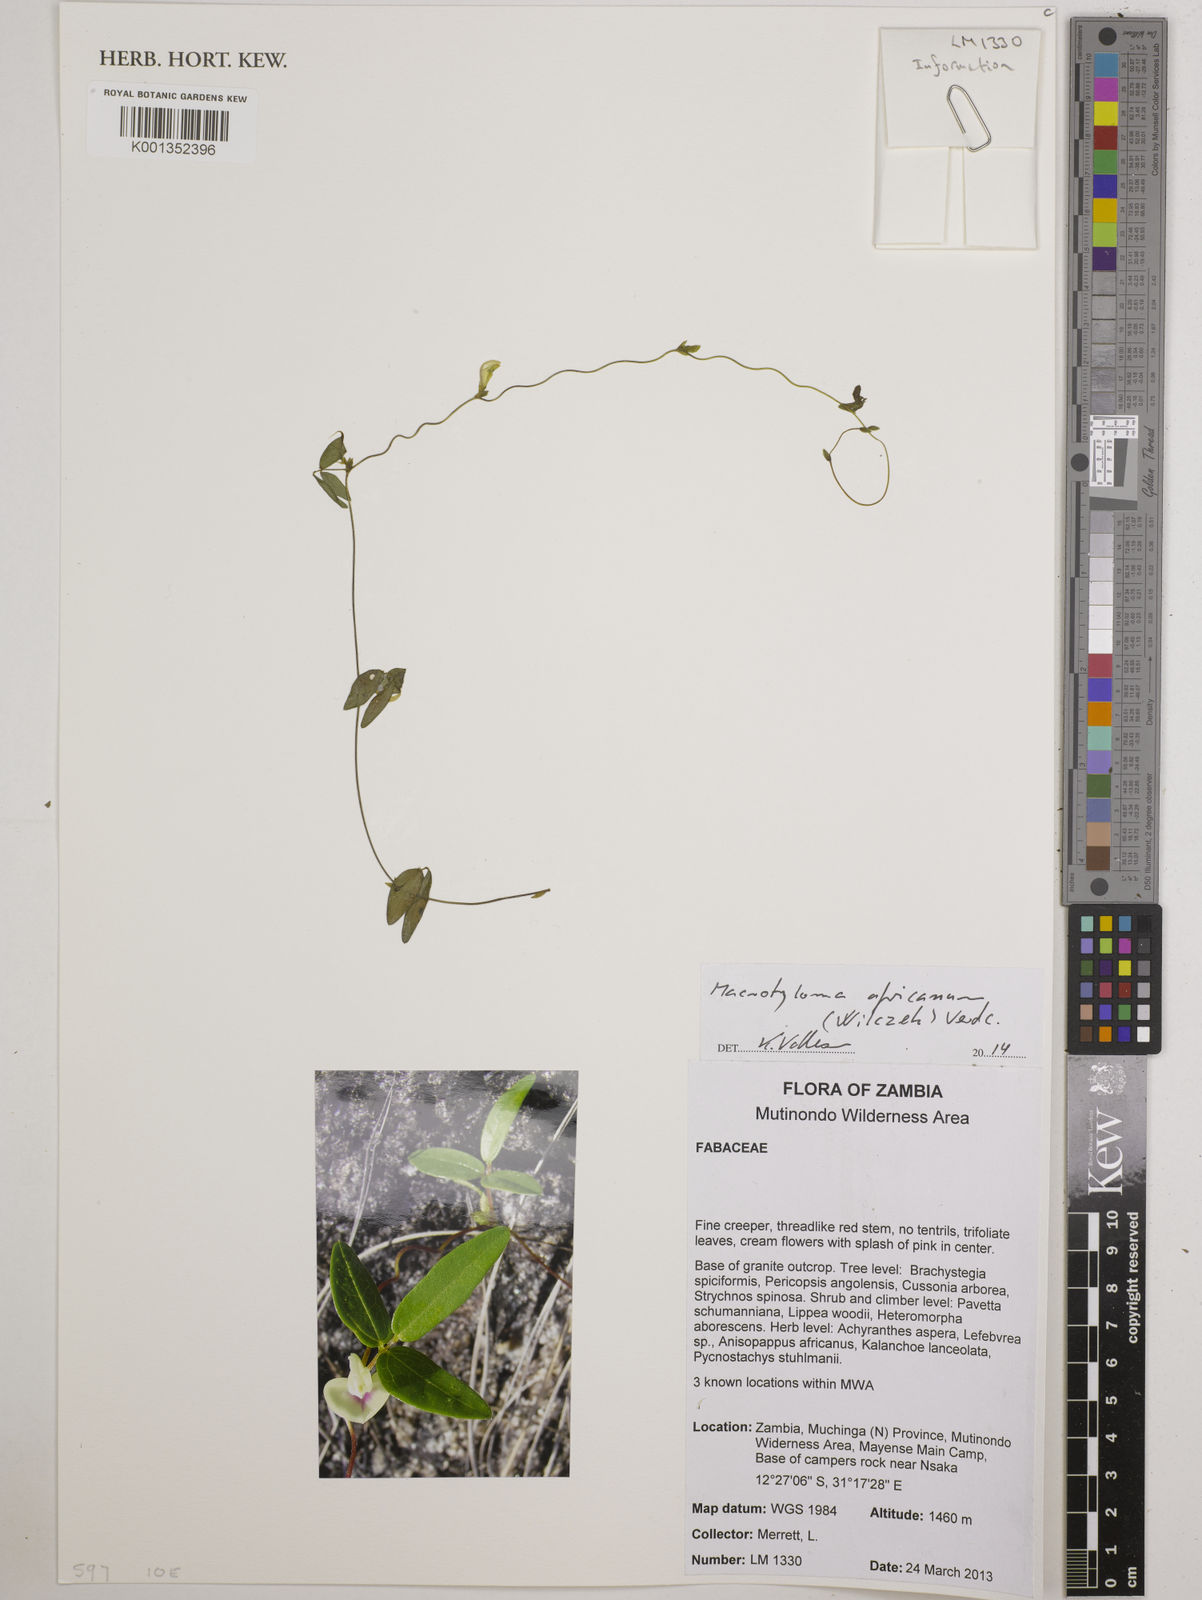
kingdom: Plantae
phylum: Tracheophyta
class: Magnoliopsida
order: Fabales
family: Fabaceae
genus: Macrotyloma
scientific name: Macrotyloma africanum
